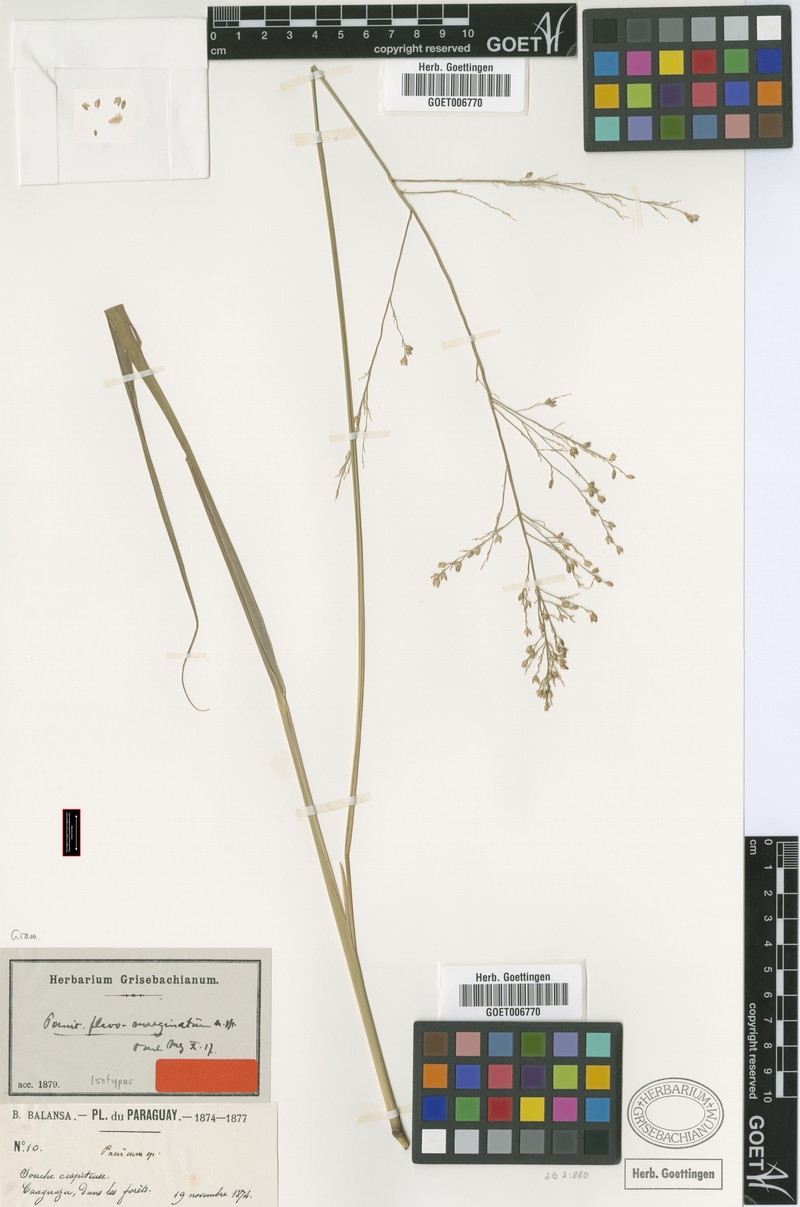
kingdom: Plantae
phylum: Tracheophyta
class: Liliopsida
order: Poales
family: Poaceae
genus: Panicum
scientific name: Panicum tricholaenoides
